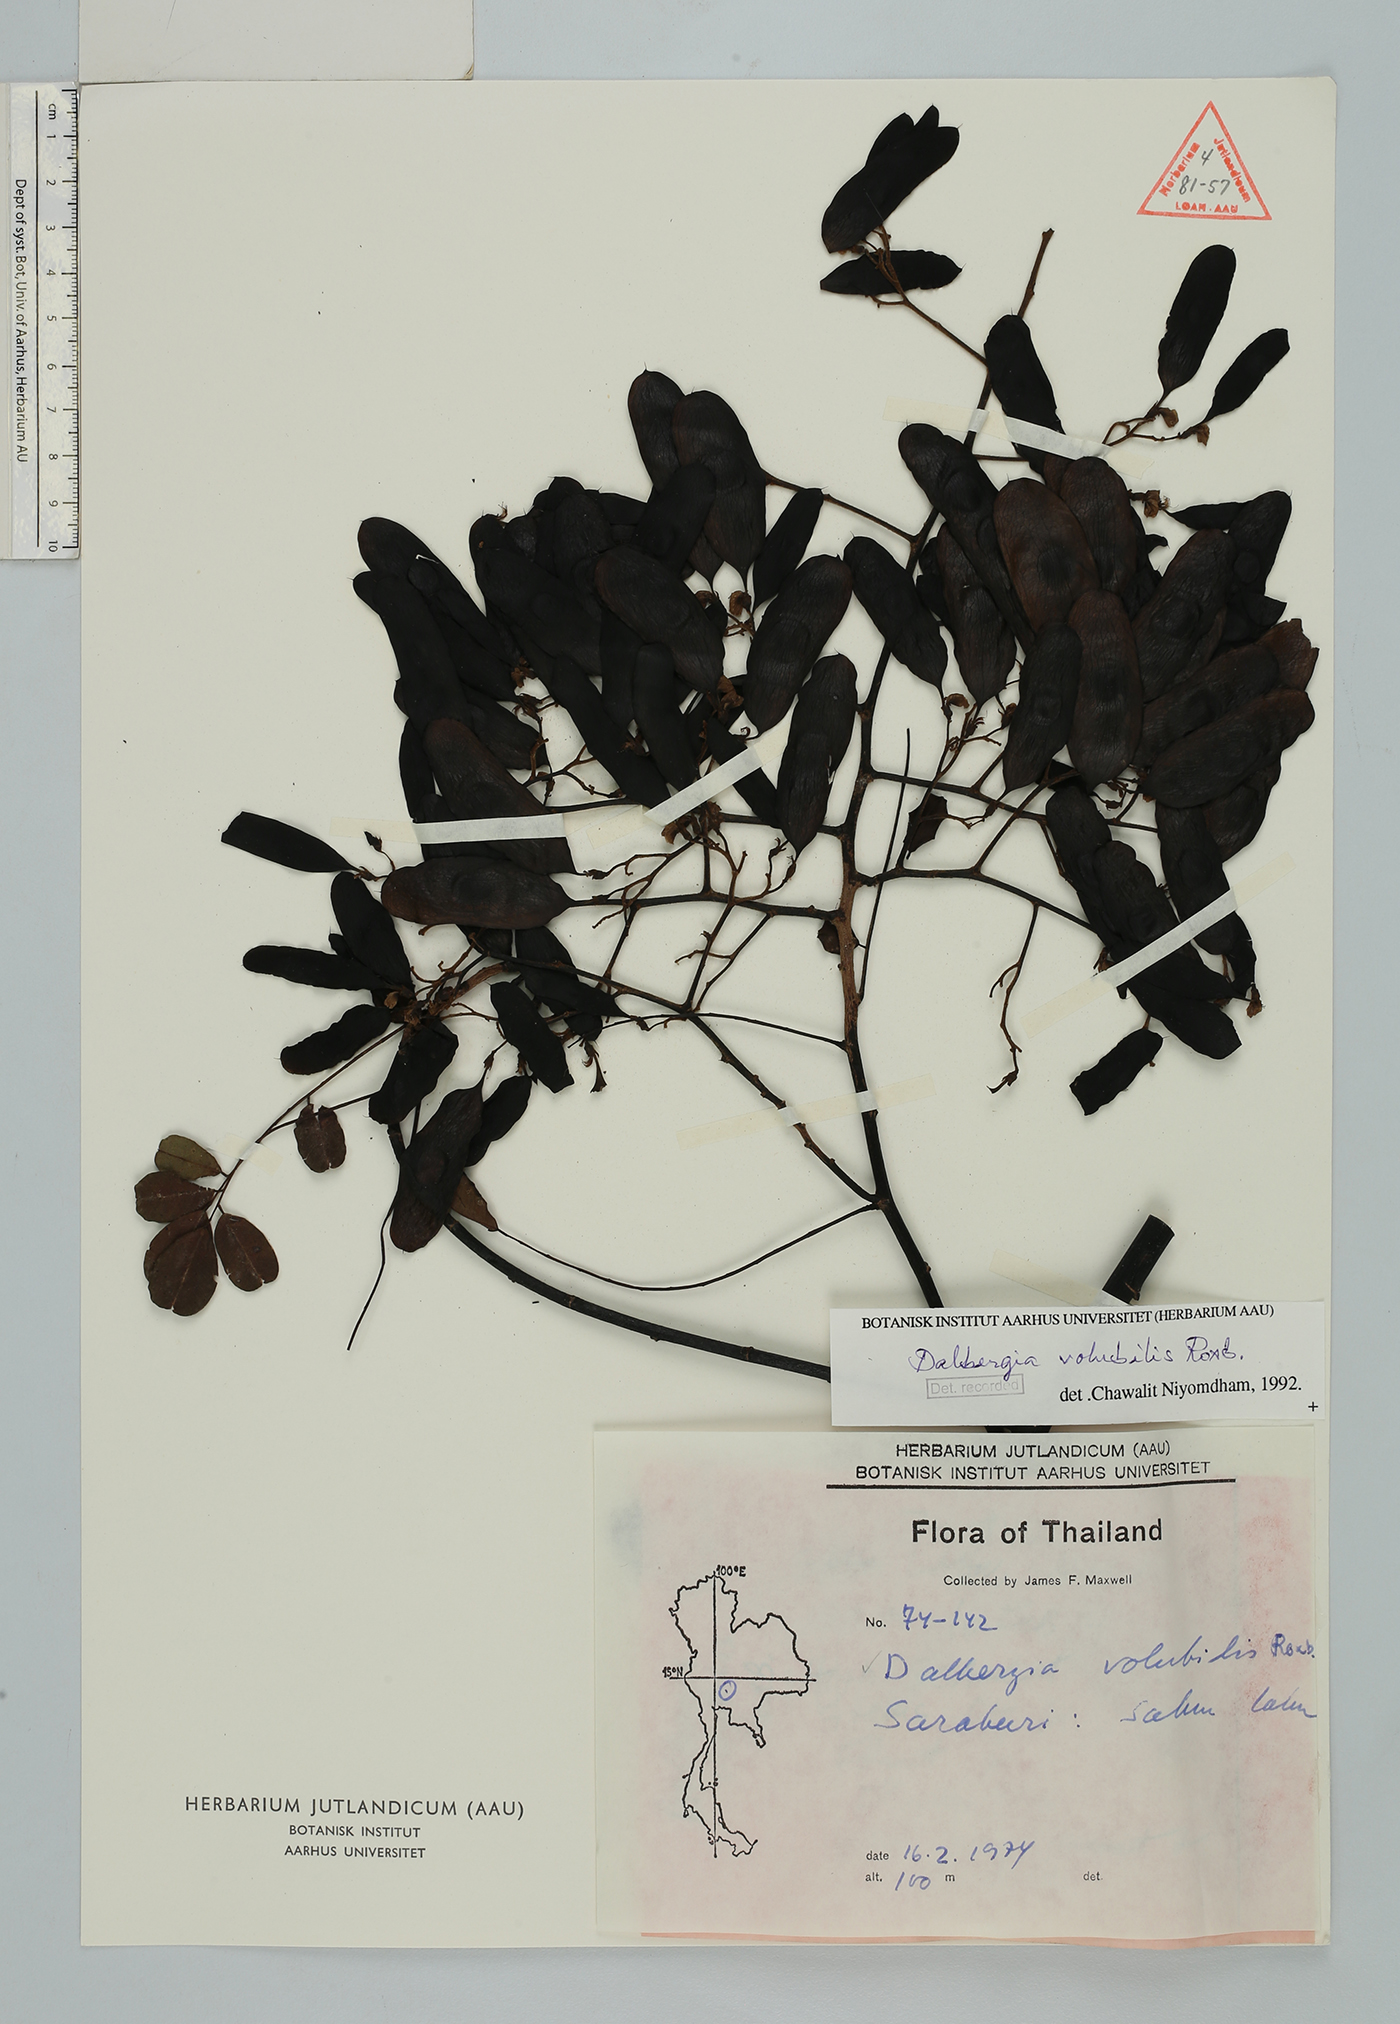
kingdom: Plantae
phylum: Tracheophyta
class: Magnoliopsida
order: Fabales
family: Fabaceae
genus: Dalbergia
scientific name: Dalbergia volubilis
